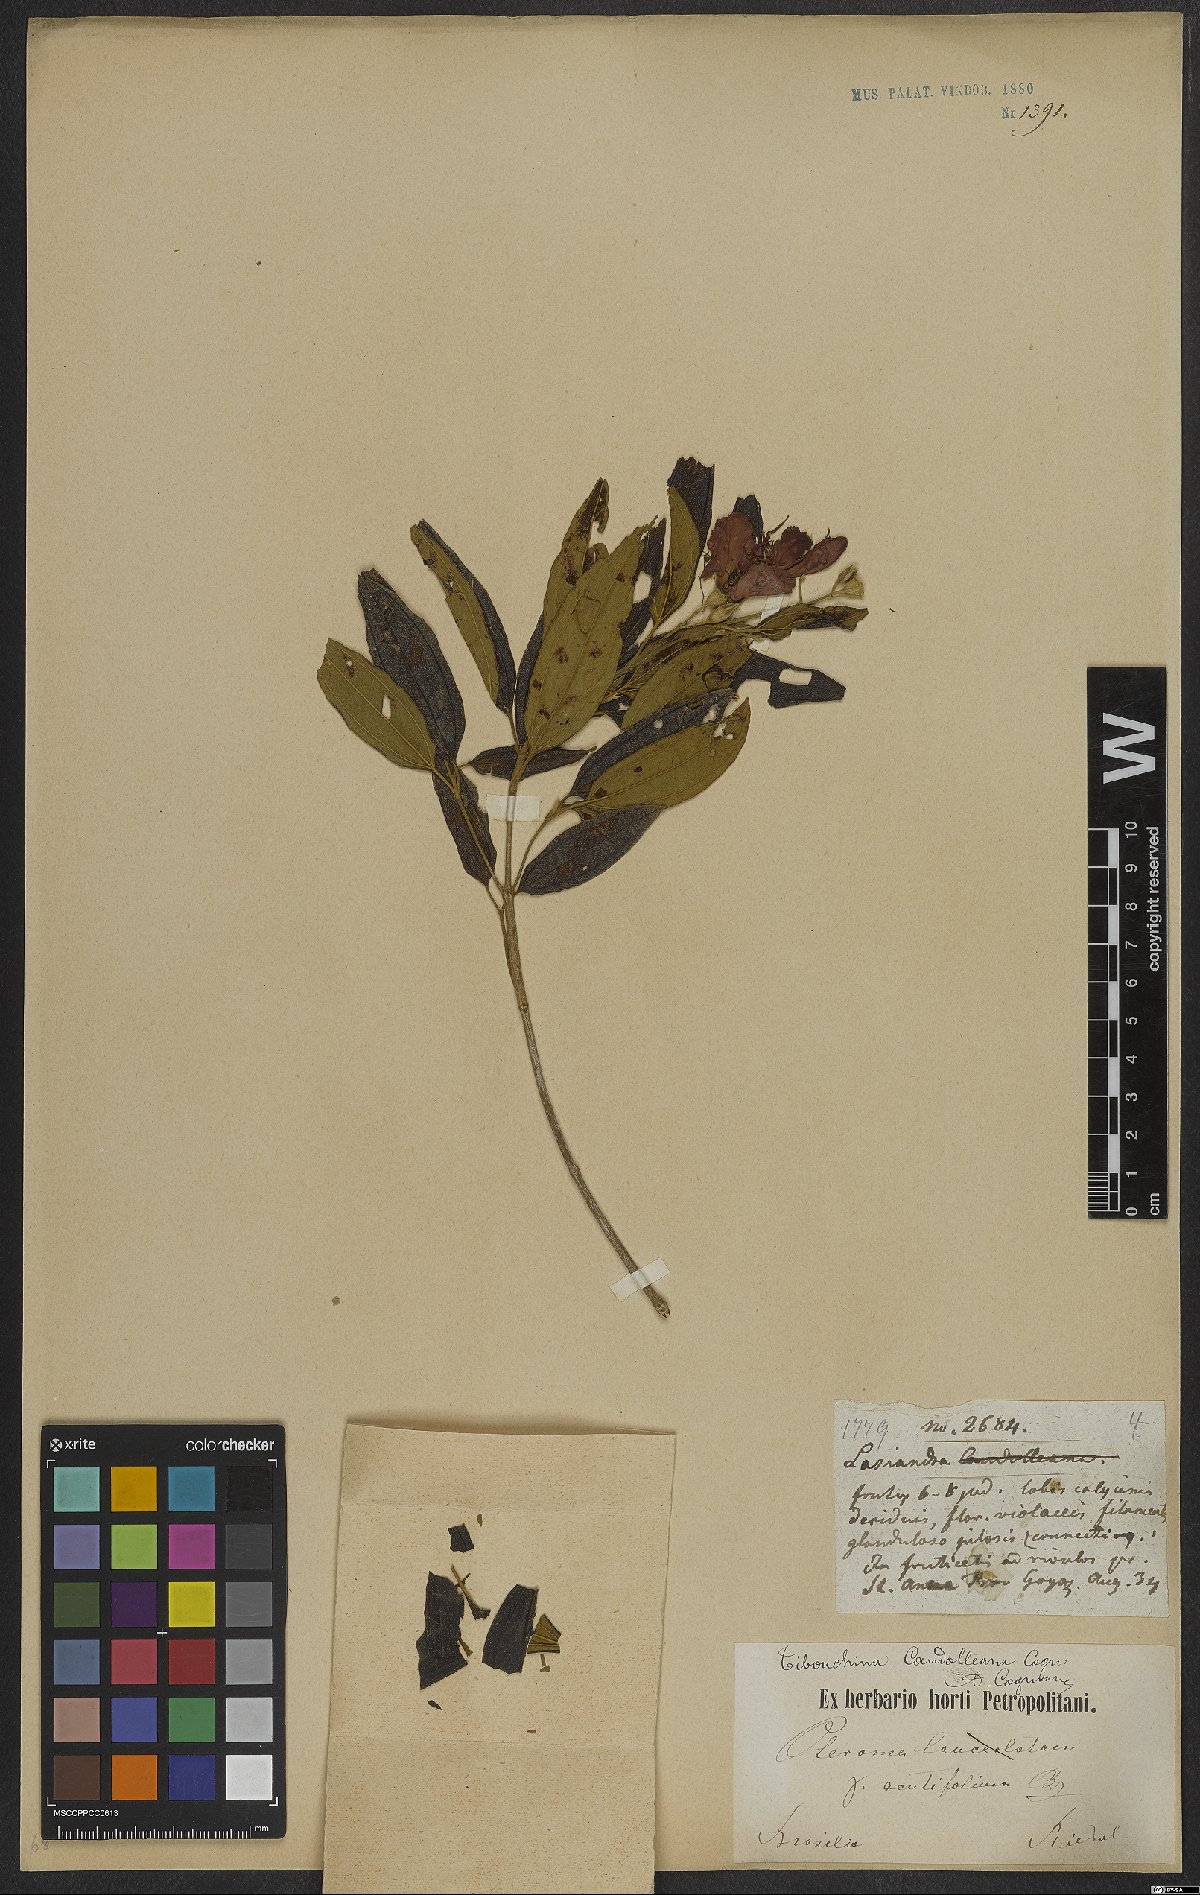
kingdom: Plantae
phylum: Tracheophyta
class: Magnoliopsida
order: Myrtales
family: Melastomataceae
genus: Pleroma
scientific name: Pleroma candolleanum
